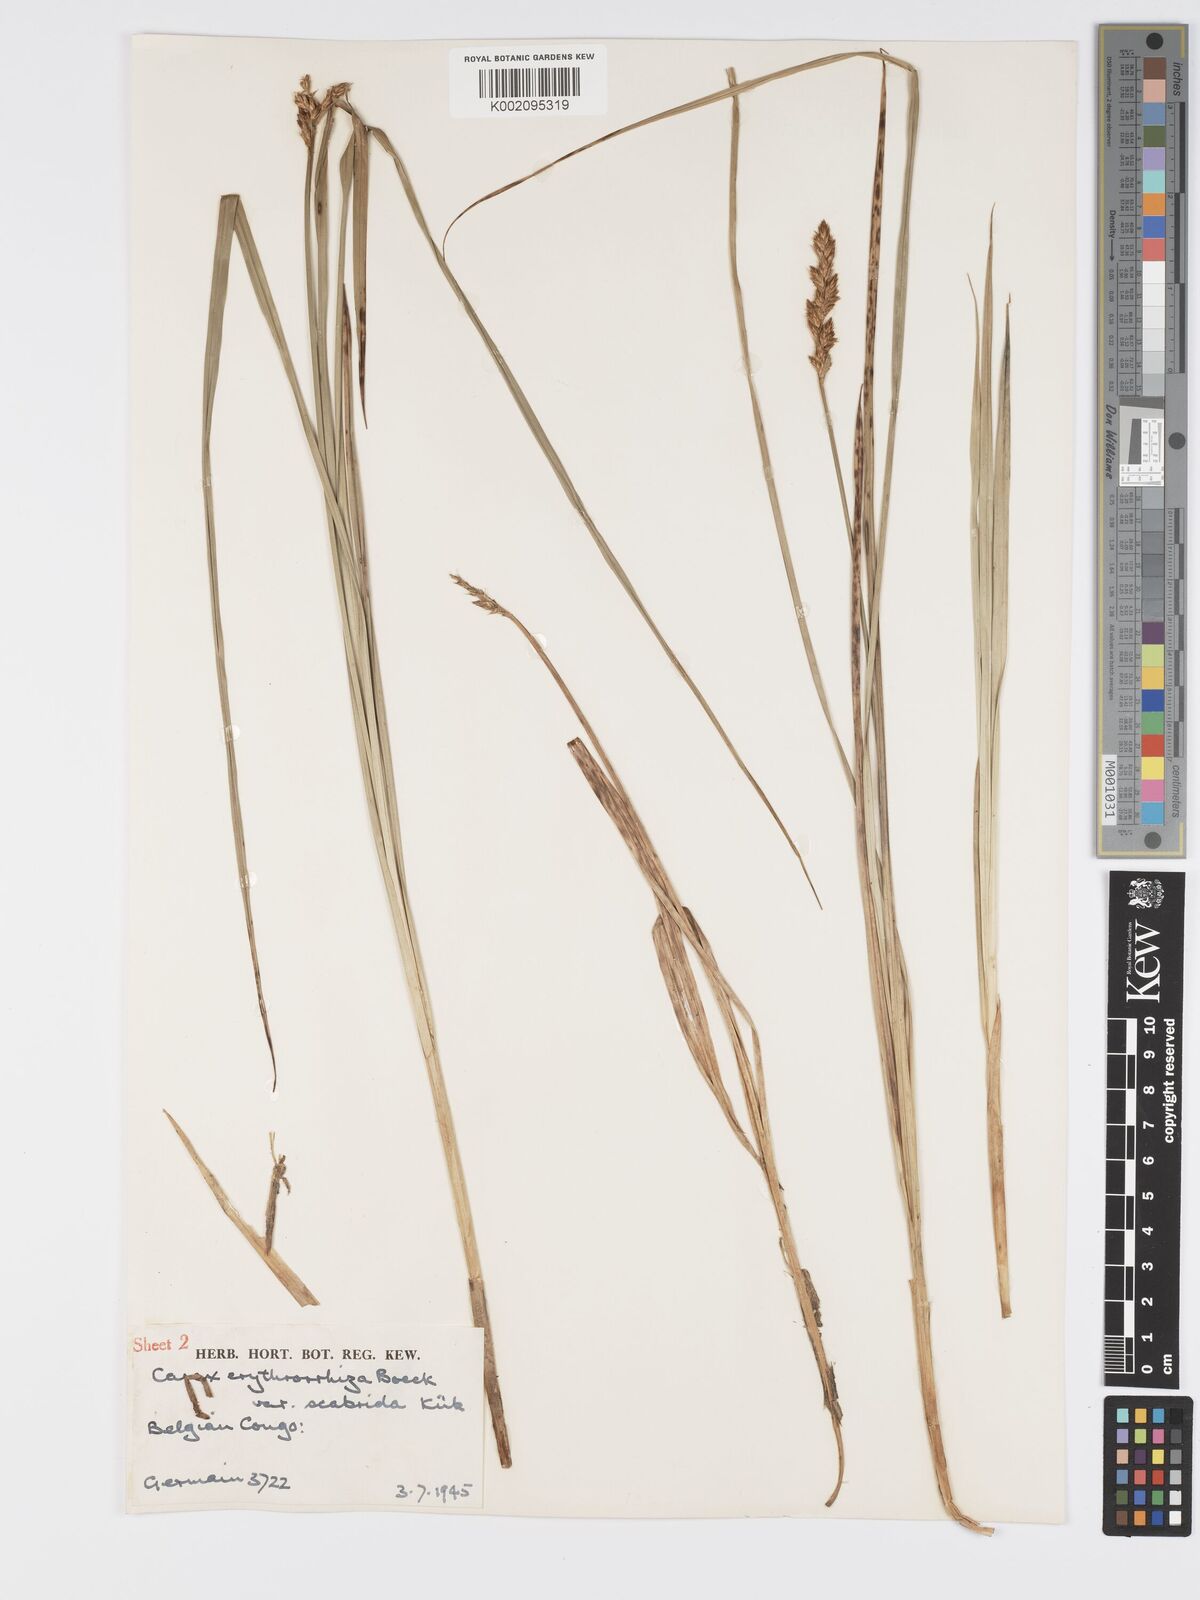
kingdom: Plantae
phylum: Tracheophyta
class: Liliopsida
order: Poales
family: Cyperaceae
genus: Carex
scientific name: Carex lycurus
